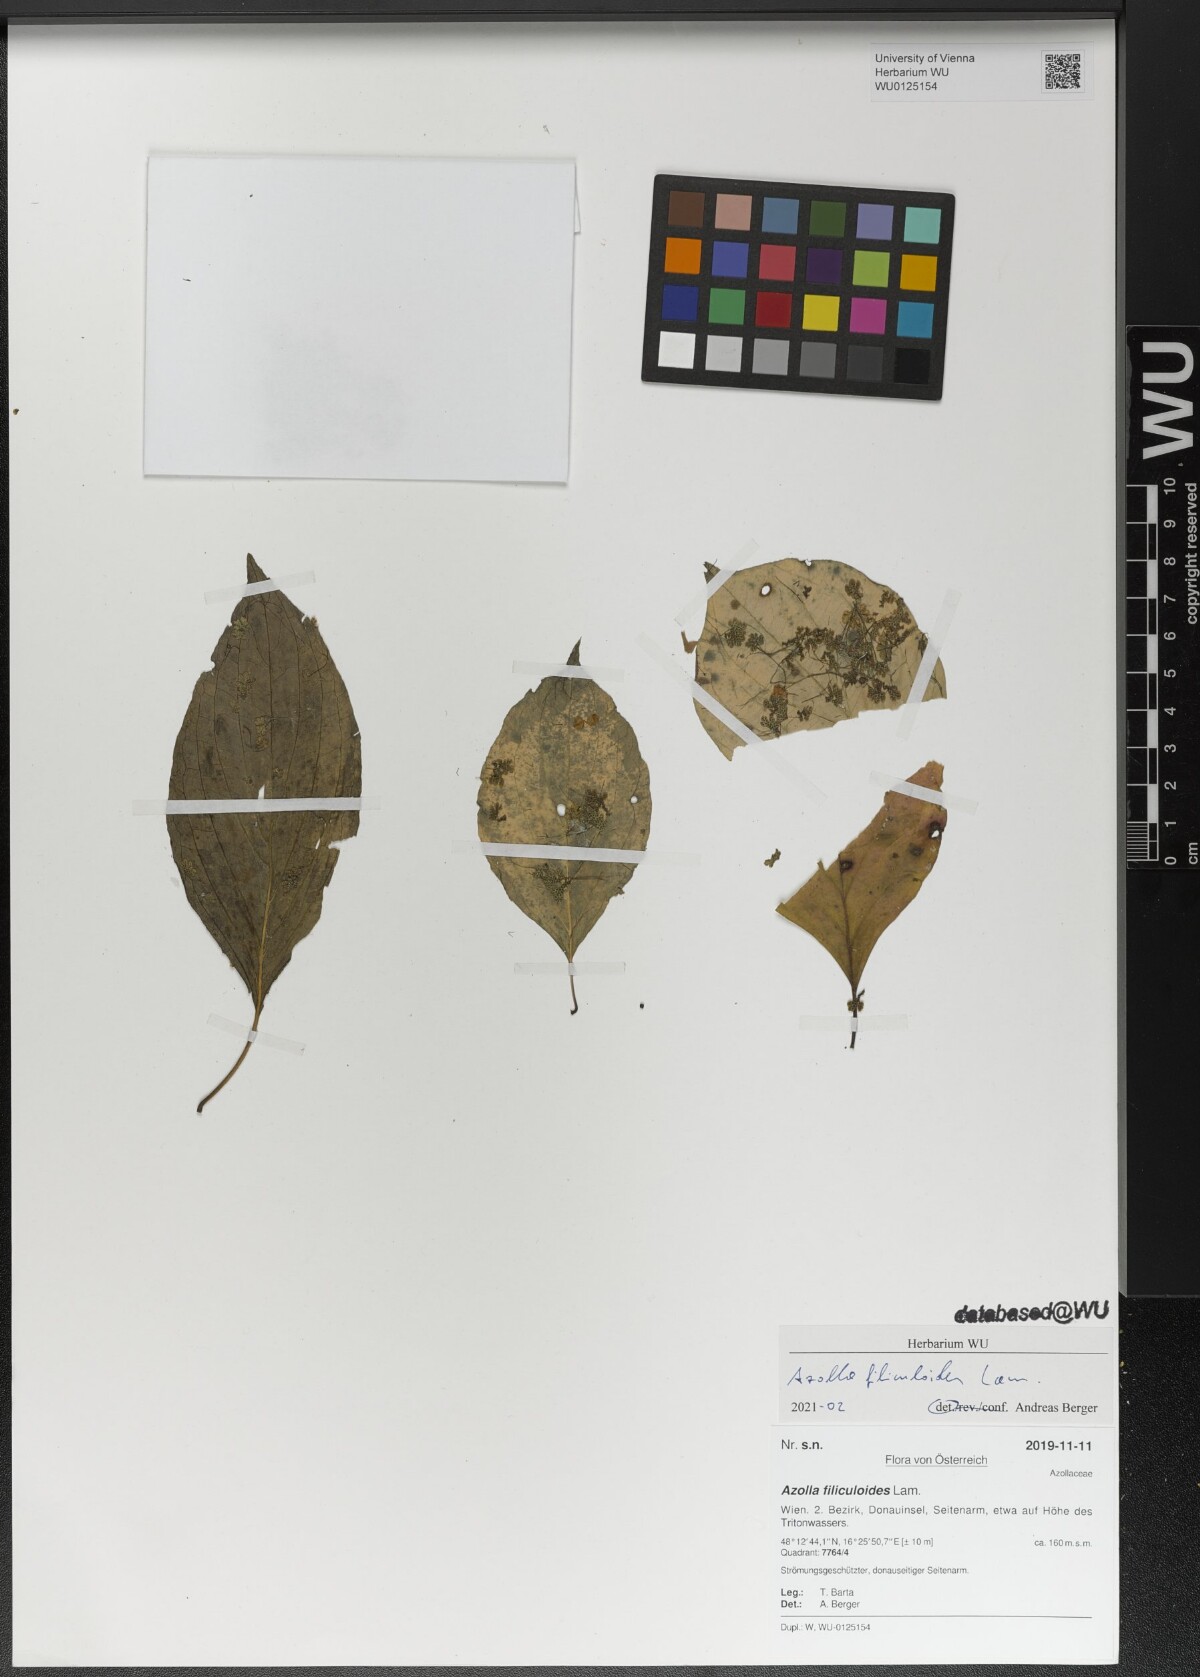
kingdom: Plantae
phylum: Tracheophyta
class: Polypodiopsida
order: Salviniales
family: Salviniaceae
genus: Azolla
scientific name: Azolla filiculoides
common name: Water fern
